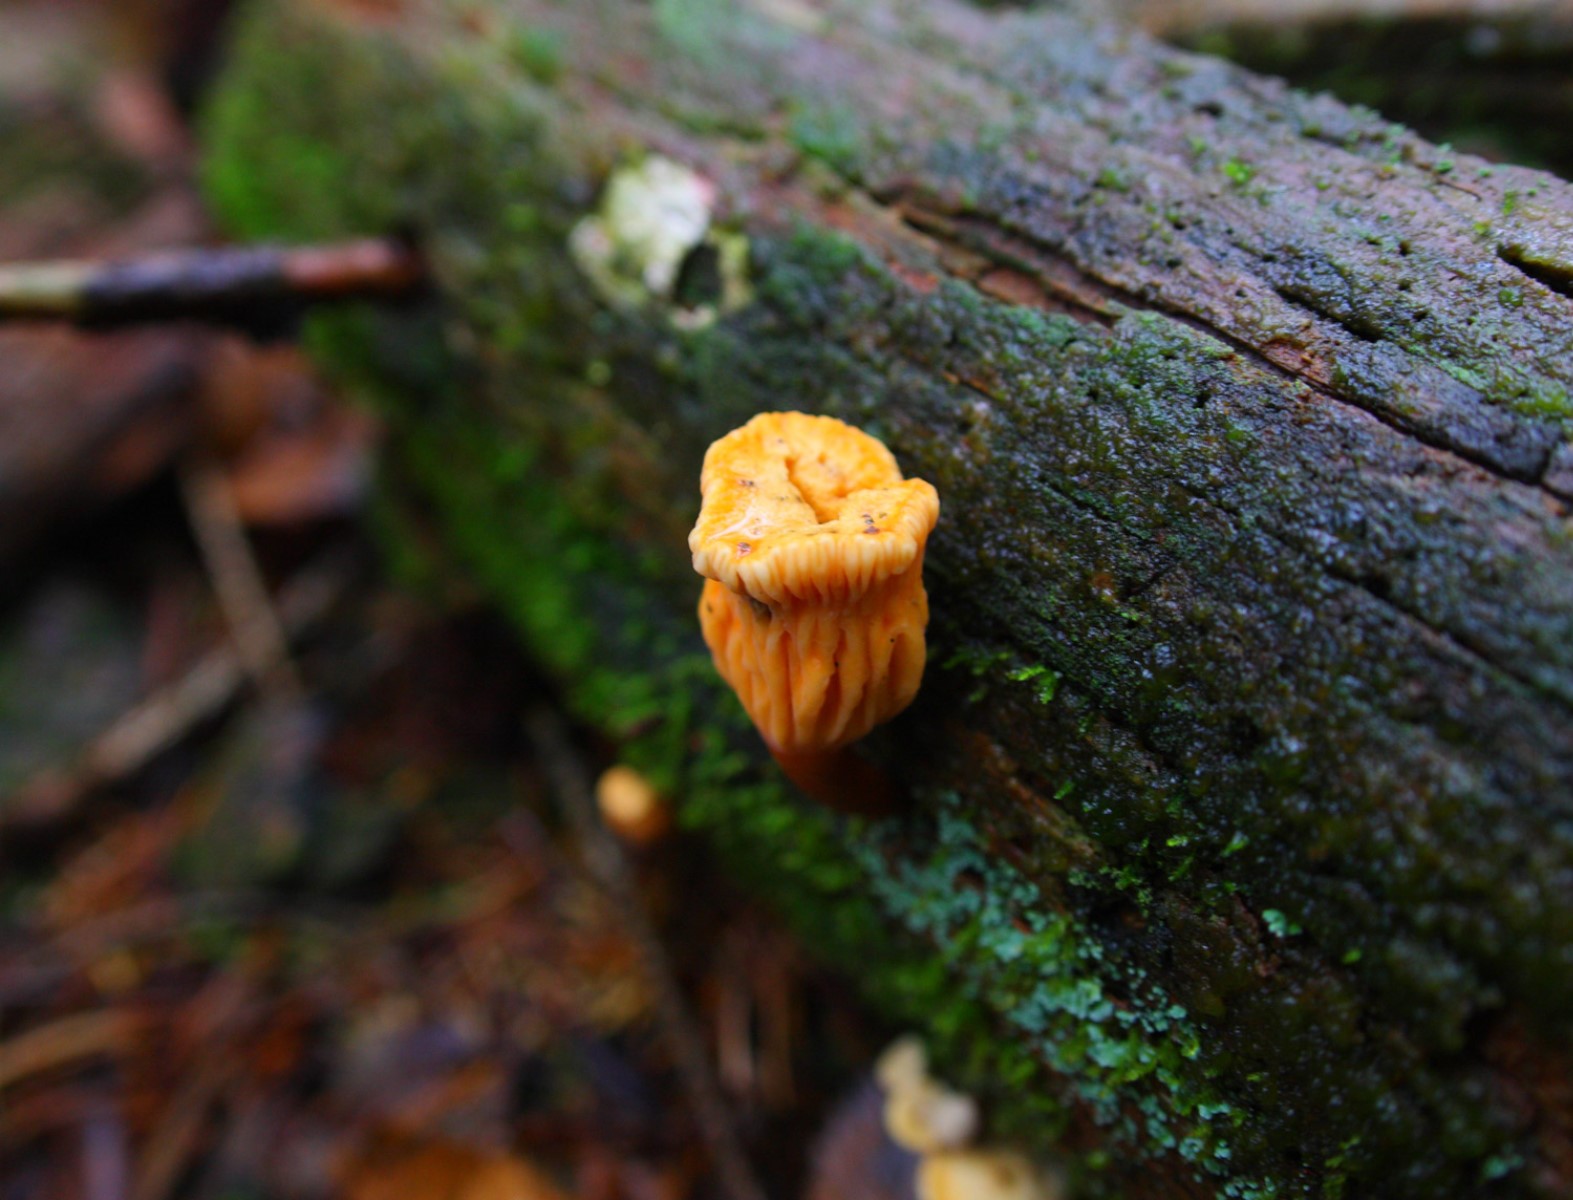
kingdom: Fungi
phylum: Basidiomycota
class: Agaricomycetes
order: Boletales
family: Hygrophoropsidaceae
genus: Hygrophoropsis
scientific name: Hygrophoropsis aurantiaca
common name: almindelig orangekantarel
